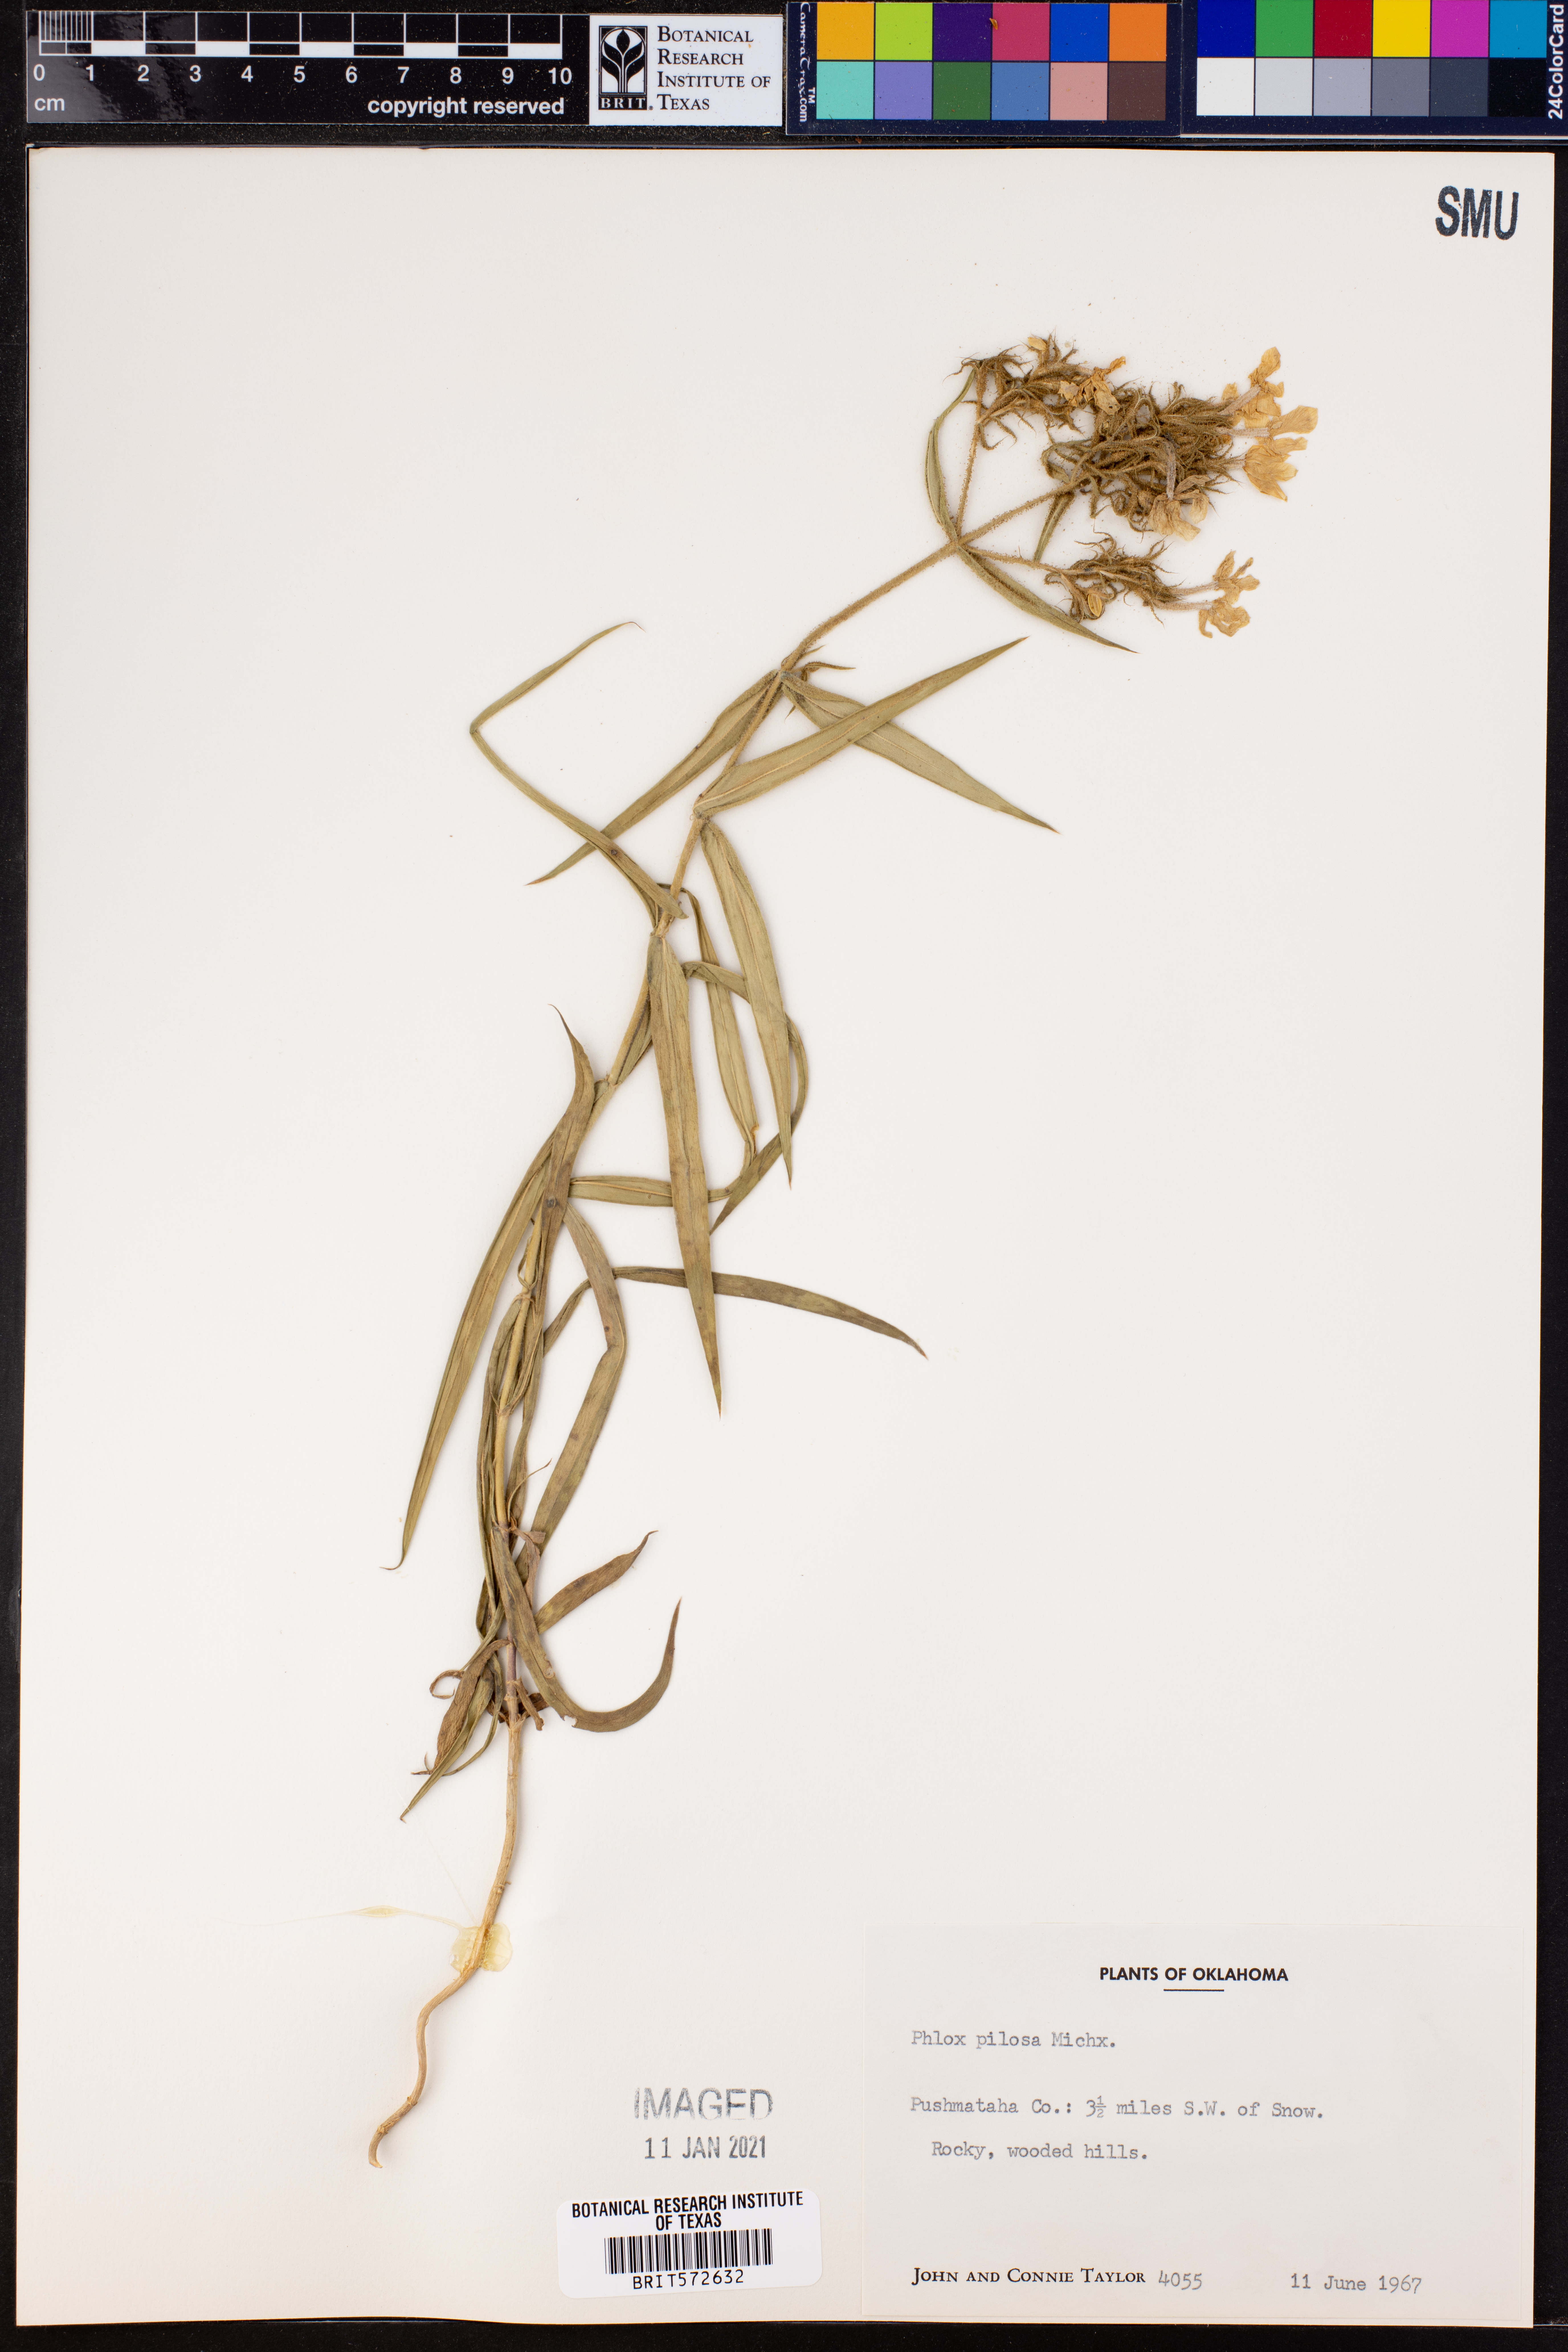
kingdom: Plantae
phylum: Tracheophyta
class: Magnoliopsida
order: Ericales
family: Polemoniaceae
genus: Phlox
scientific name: Phlox pilosa
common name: Prairie phlox
